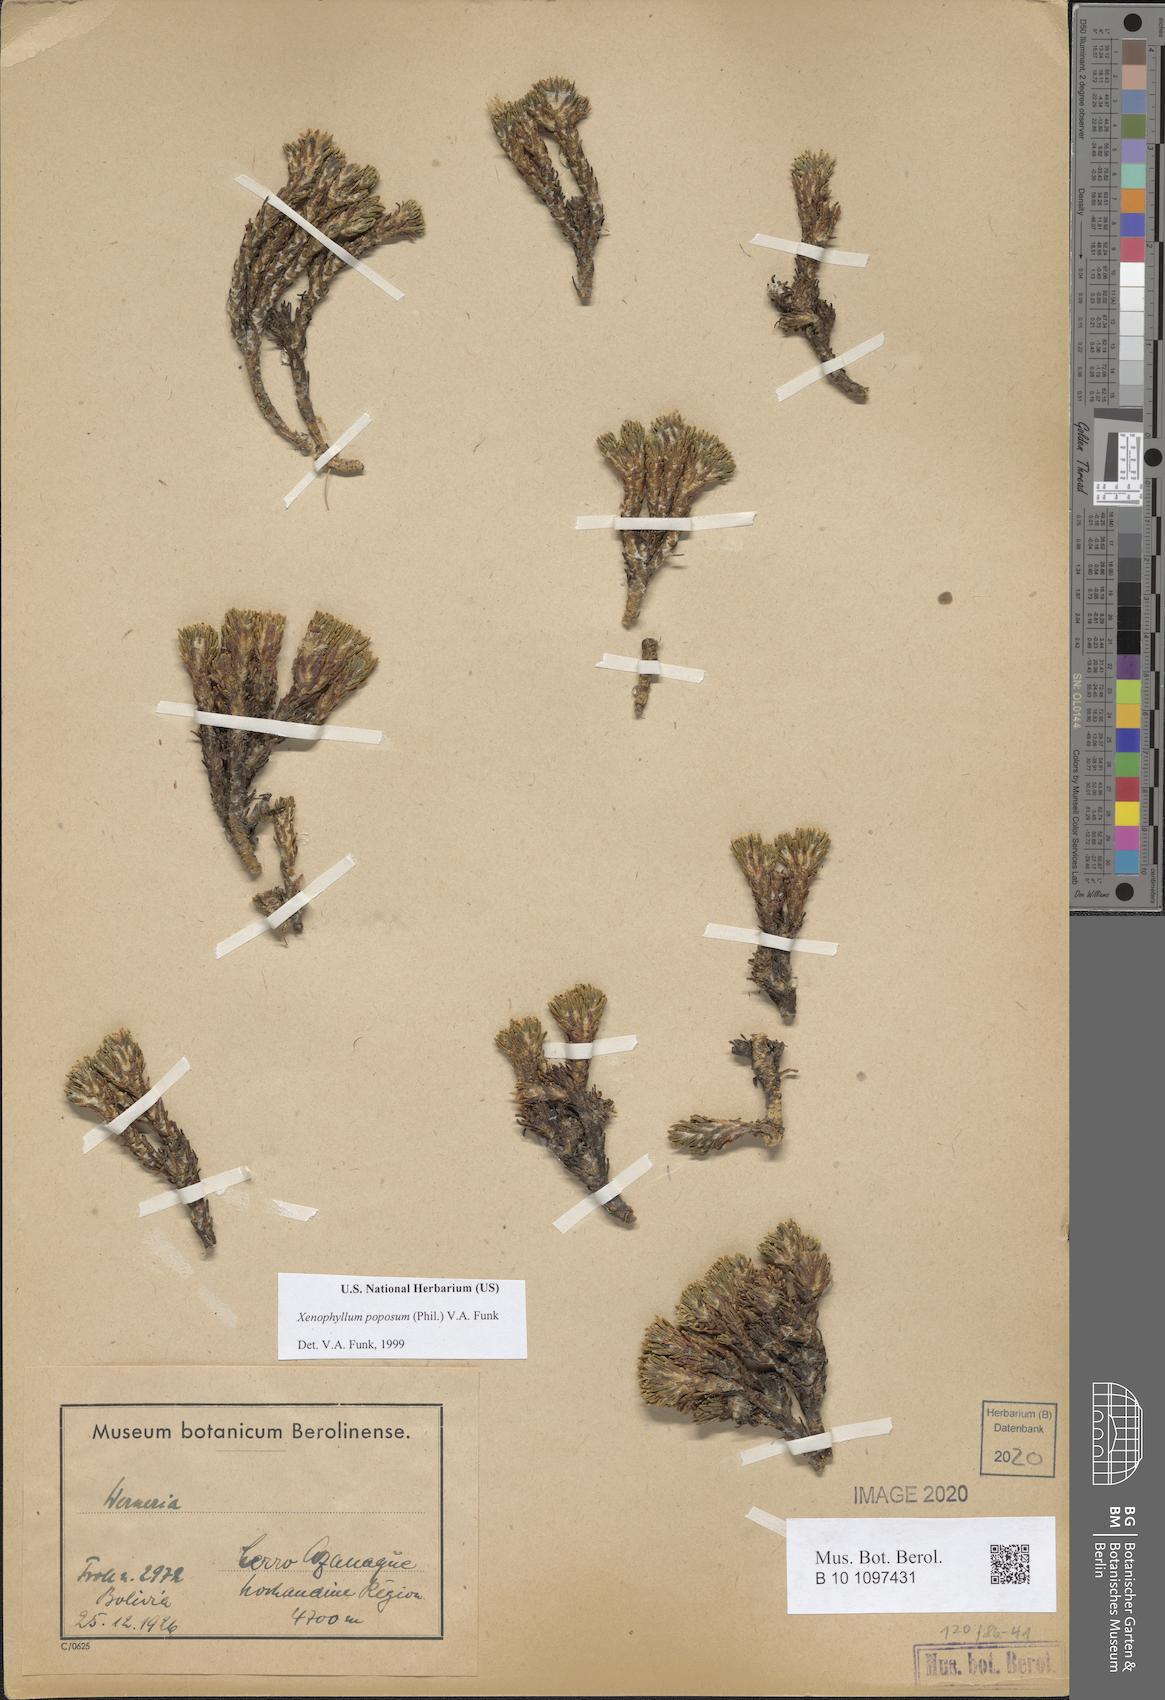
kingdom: Plantae
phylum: Tracheophyta
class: Magnoliopsida
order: Asterales
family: Asteraceae
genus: Werneria
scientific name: Werneria poposa
